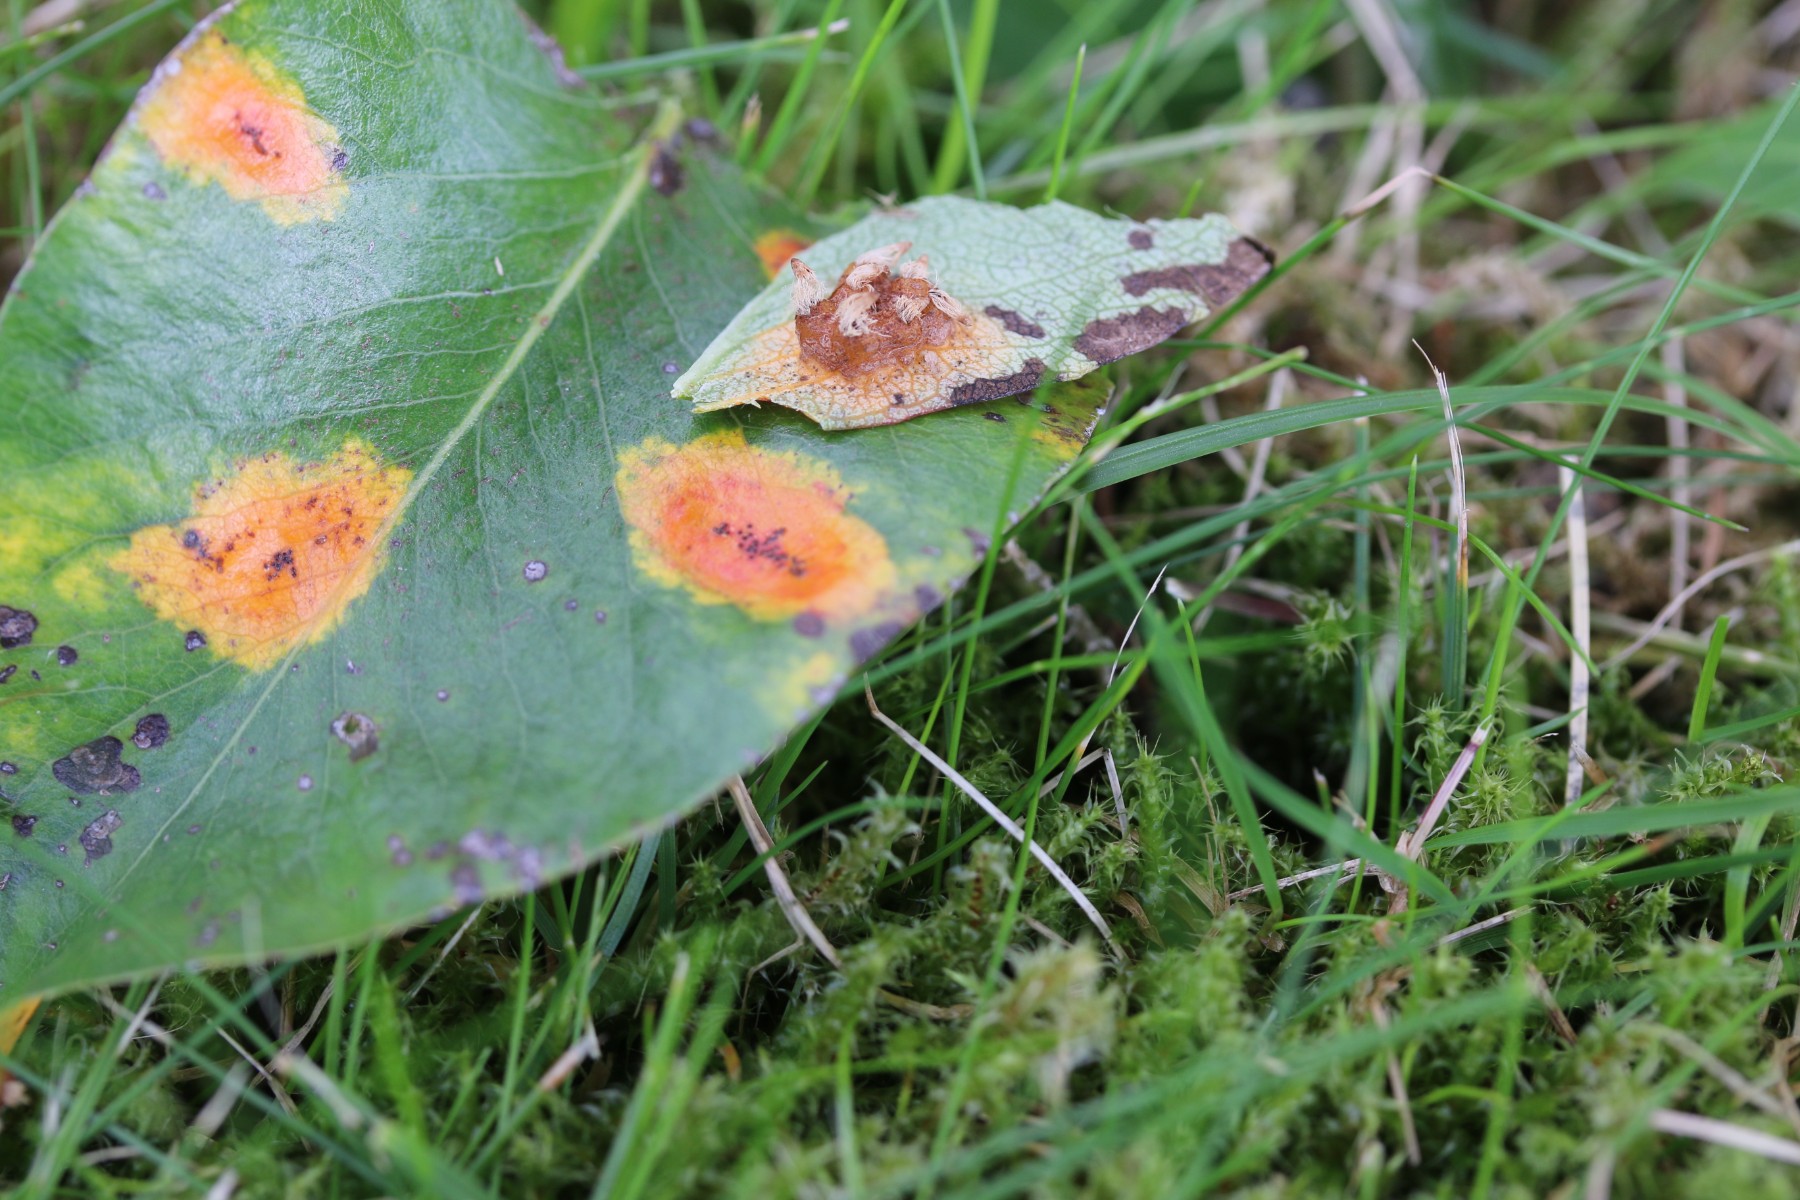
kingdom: Fungi
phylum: Basidiomycota
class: Pucciniomycetes
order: Pucciniales
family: Gymnosporangiaceae
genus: Gymnosporangium
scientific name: Gymnosporangium sabinae
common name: pæregitter-bævrerust
